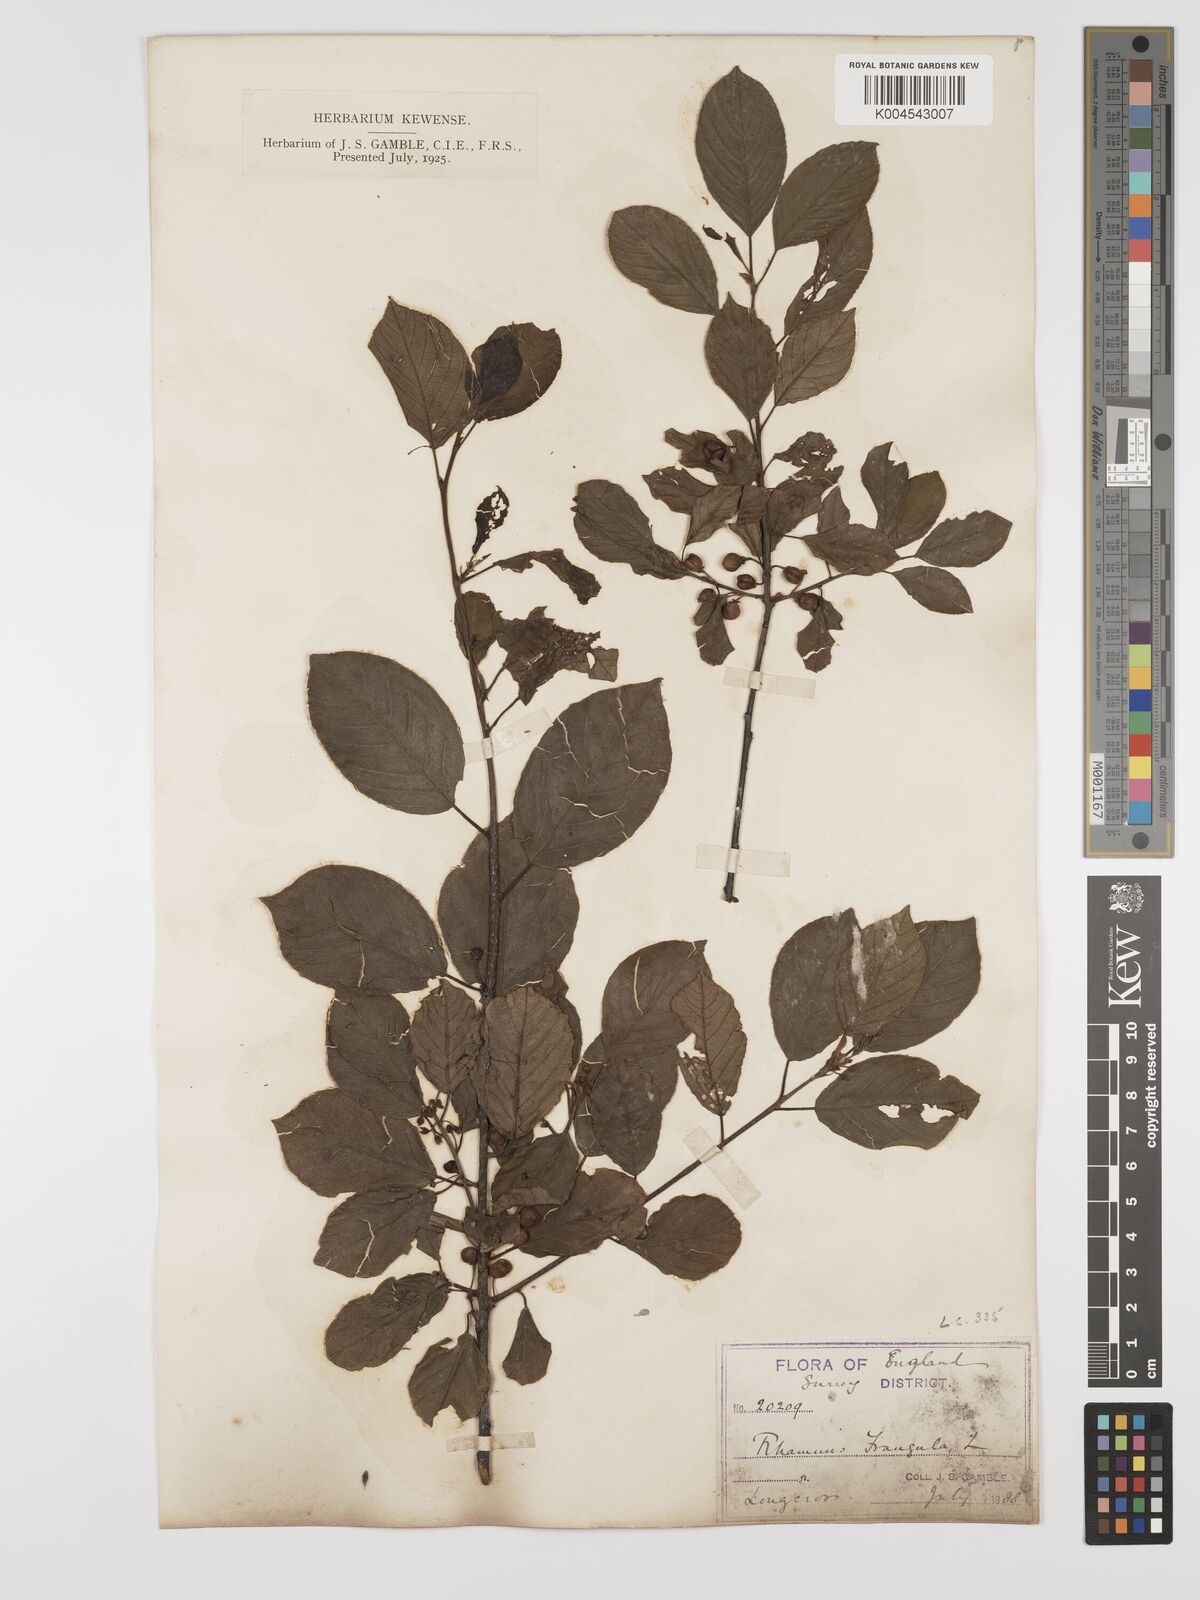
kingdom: Plantae
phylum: Tracheophyta
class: Magnoliopsida
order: Rosales
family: Rhamnaceae
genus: Frangula
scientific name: Frangula alnus
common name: Alder buckthorn
